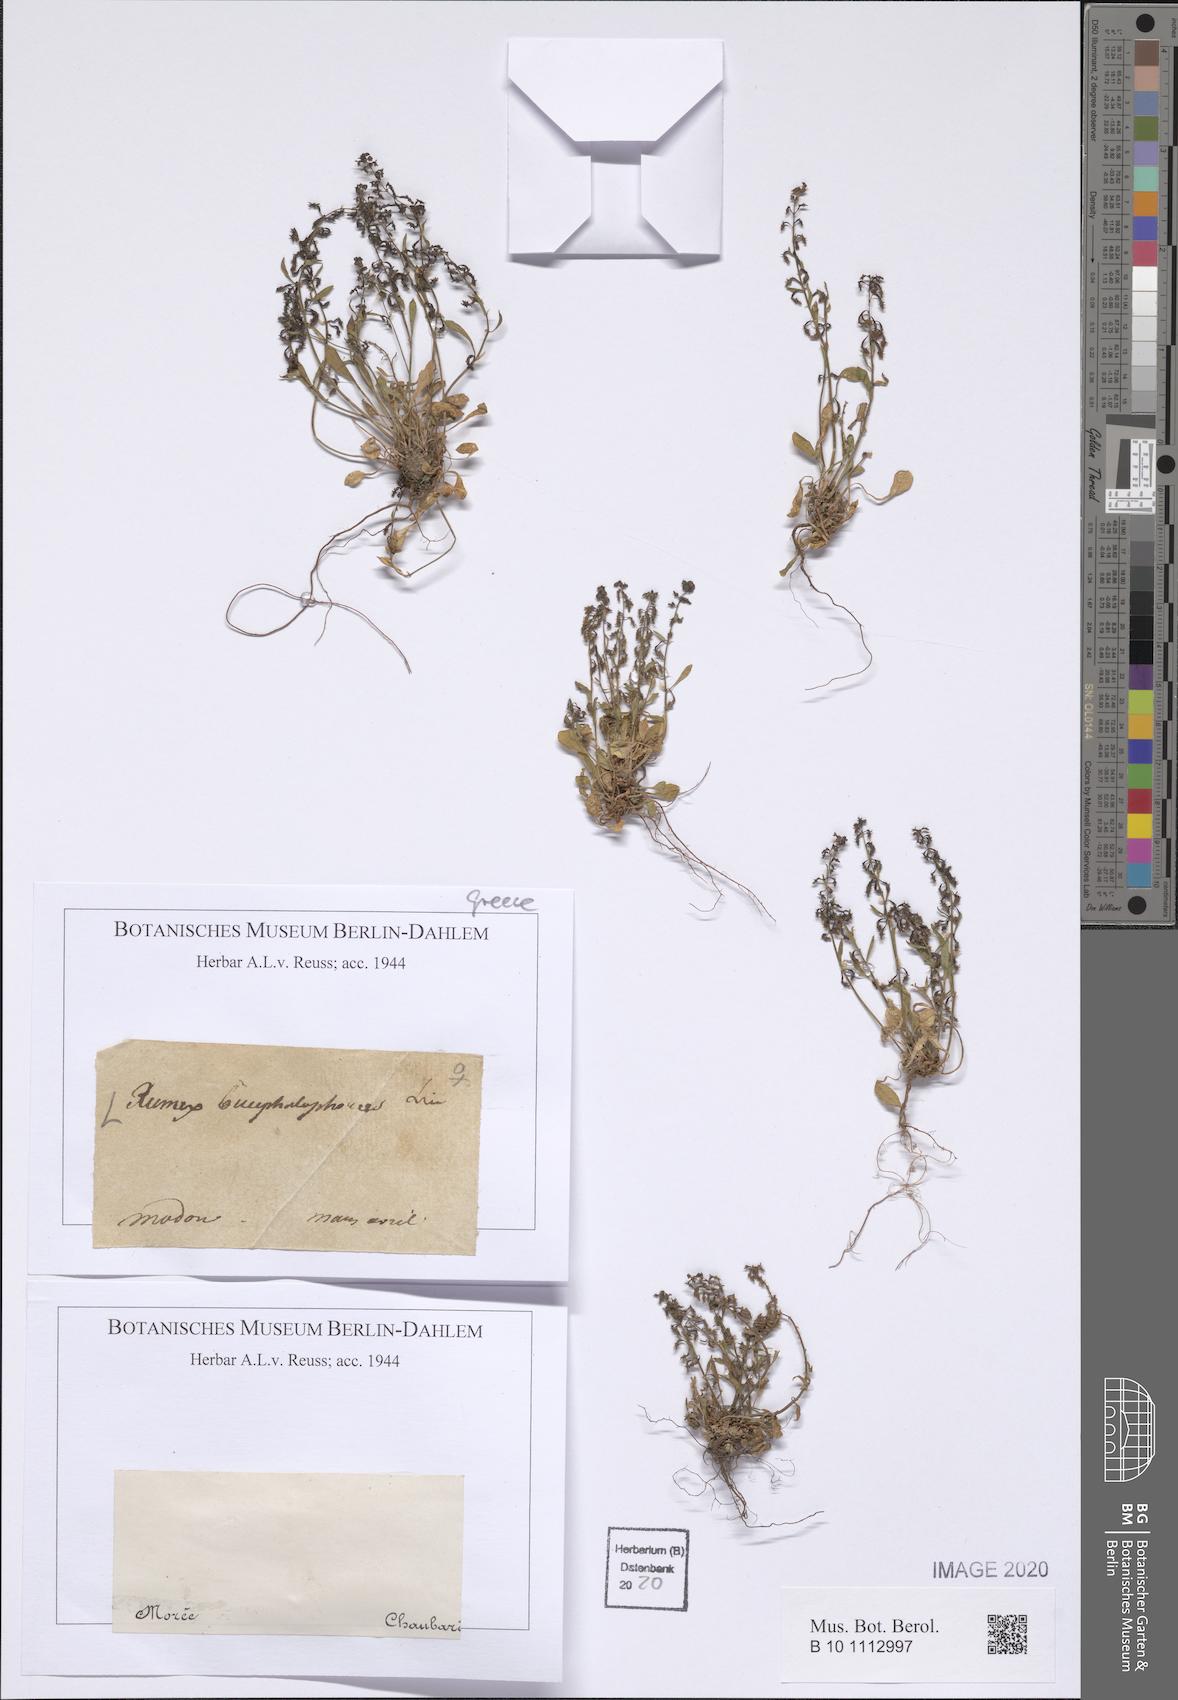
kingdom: Plantae
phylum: Tracheophyta
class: Magnoliopsida
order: Caryophyllales
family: Polygonaceae
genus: Rumex
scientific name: Rumex bucephalophorus
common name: Red dock
